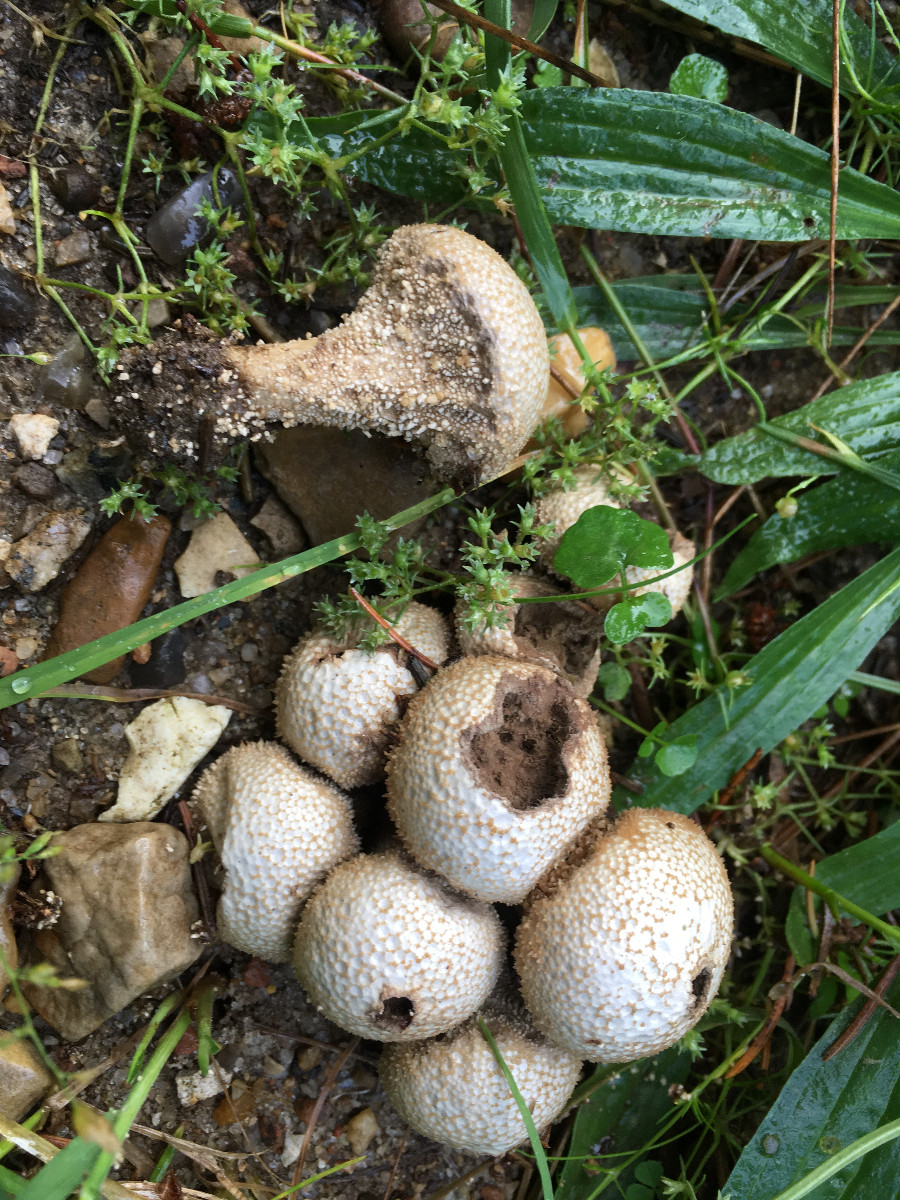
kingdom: Fungi
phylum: Basidiomycota
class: Agaricomycetes
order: Agaricales
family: Lycoperdaceae
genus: Lycoperdon
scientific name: Lycoperdon perlatum
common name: krystal-støvbold
